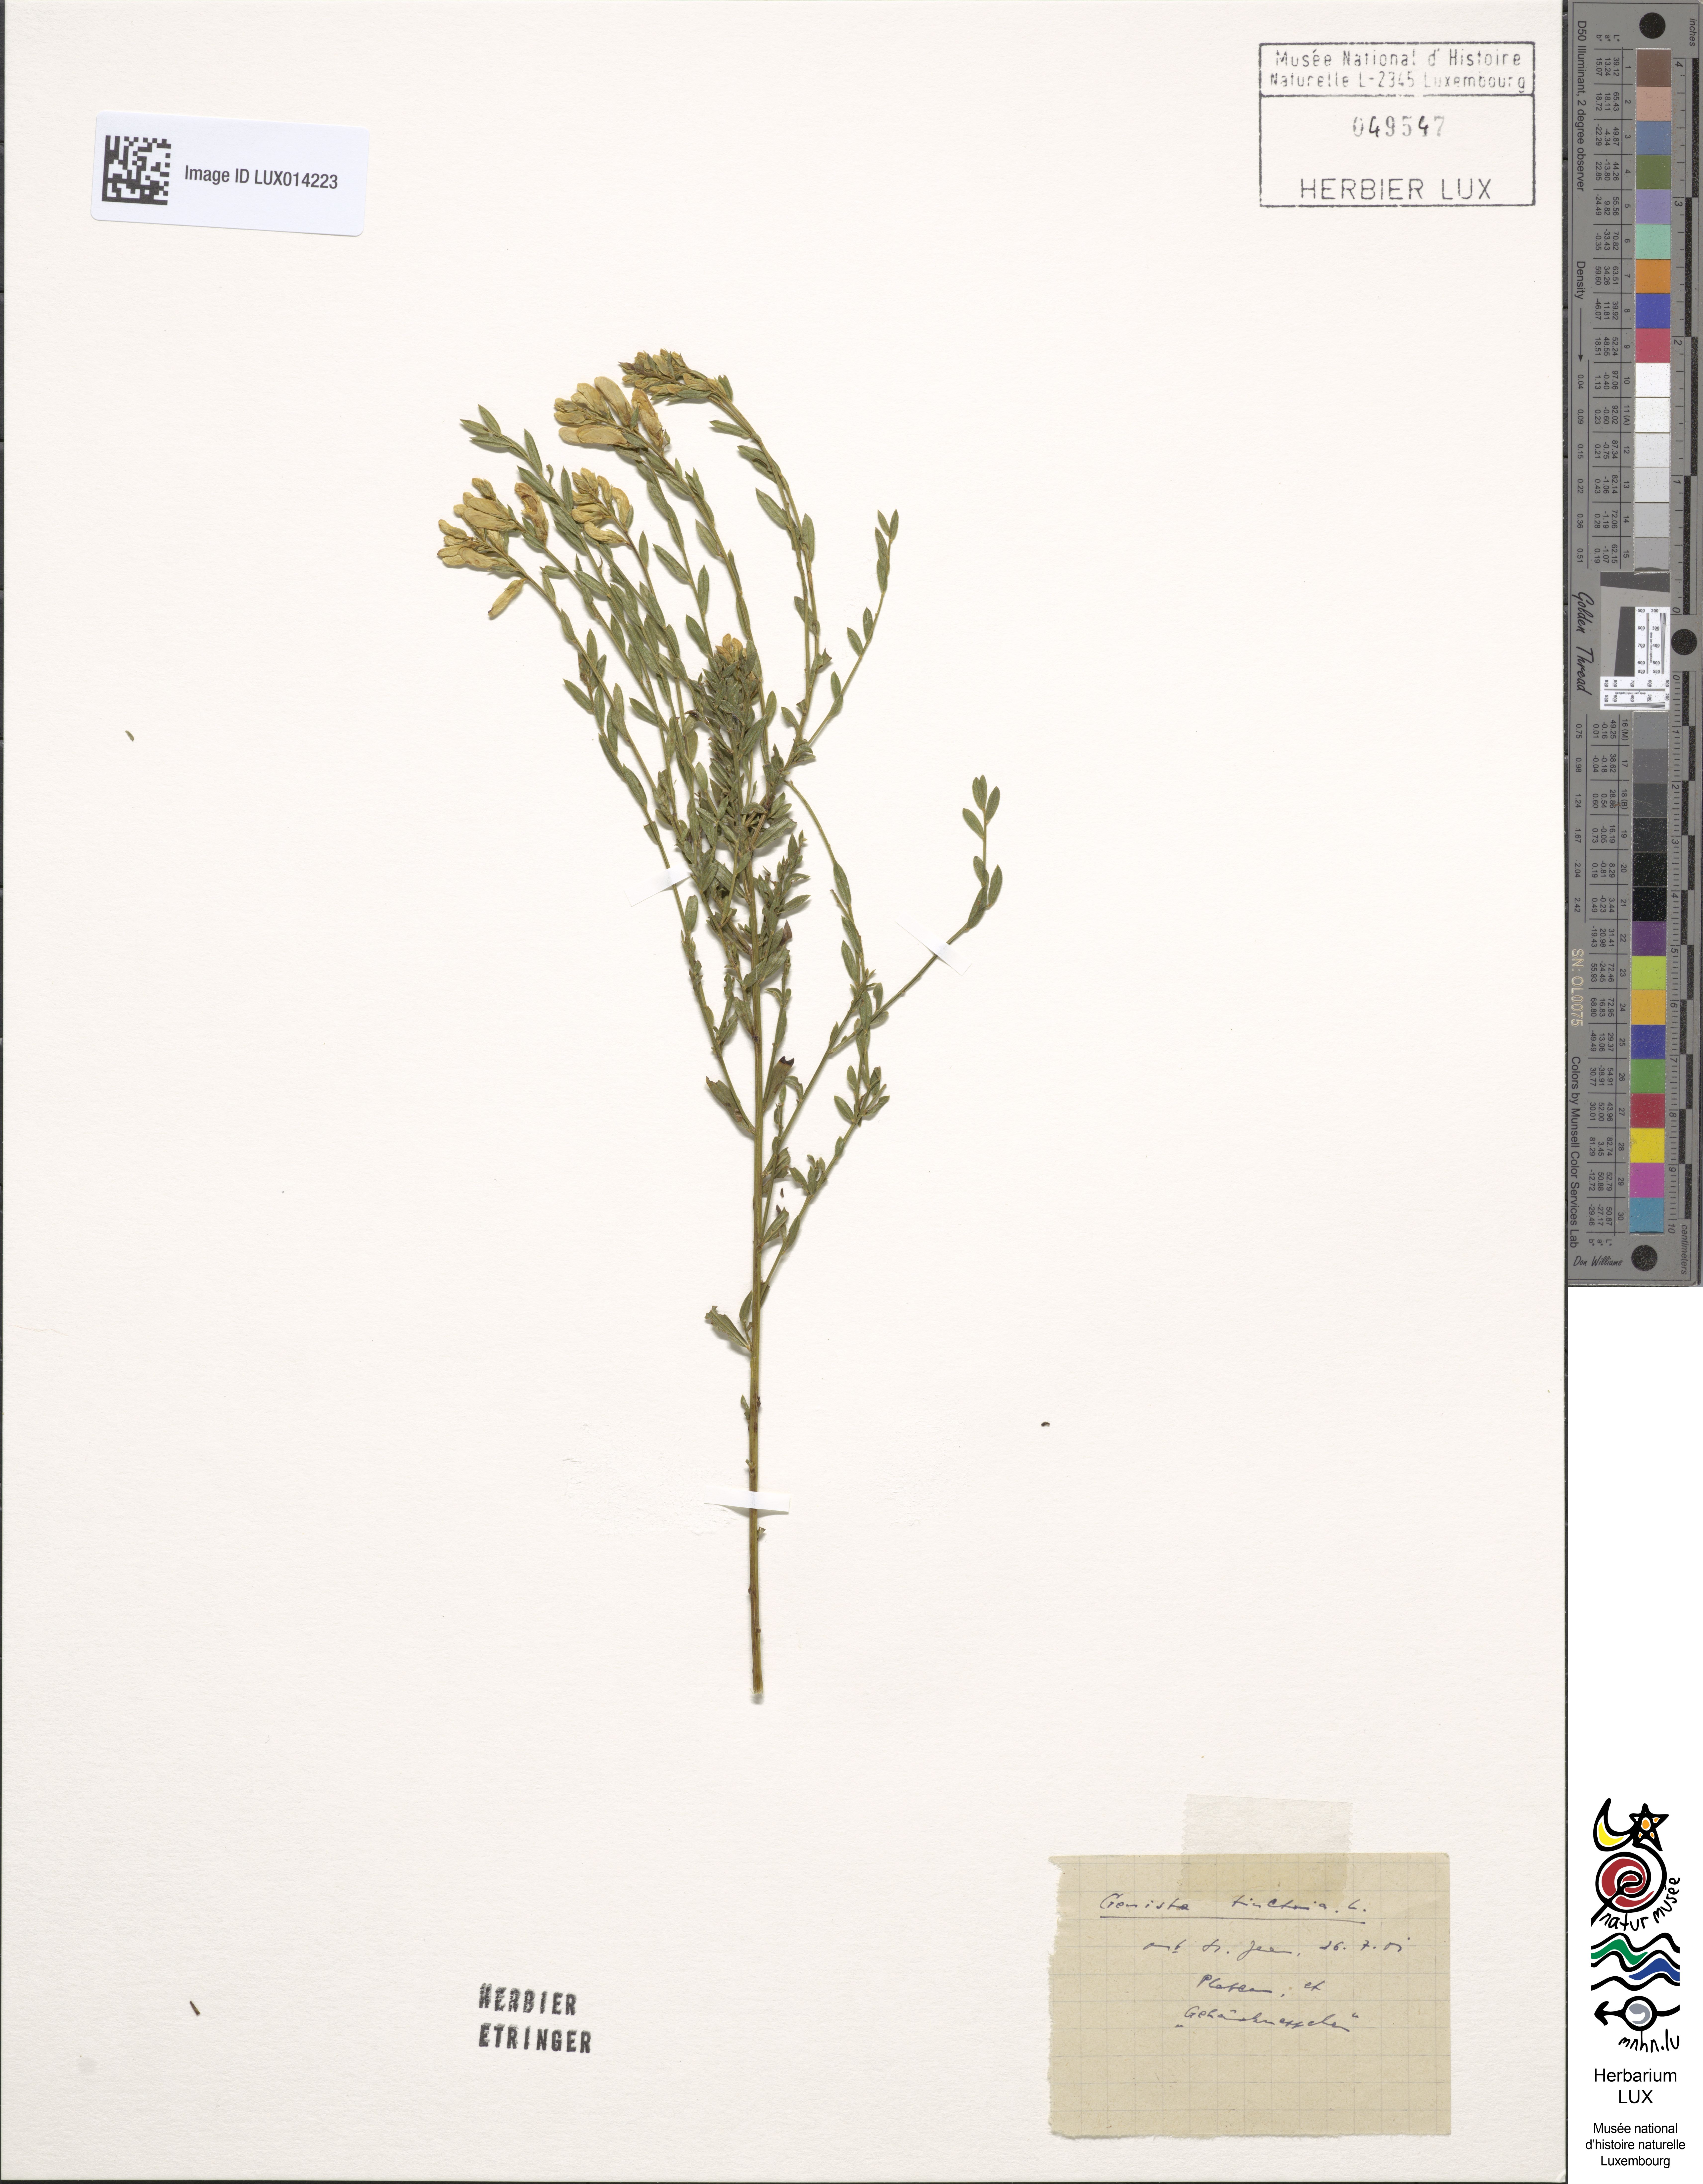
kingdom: Plantae
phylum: Tracheophyta
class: Magnoliopsida
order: Fabales
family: Fabaceae
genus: Genista
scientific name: Genista tinctoria
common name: Dyer's greenweed
